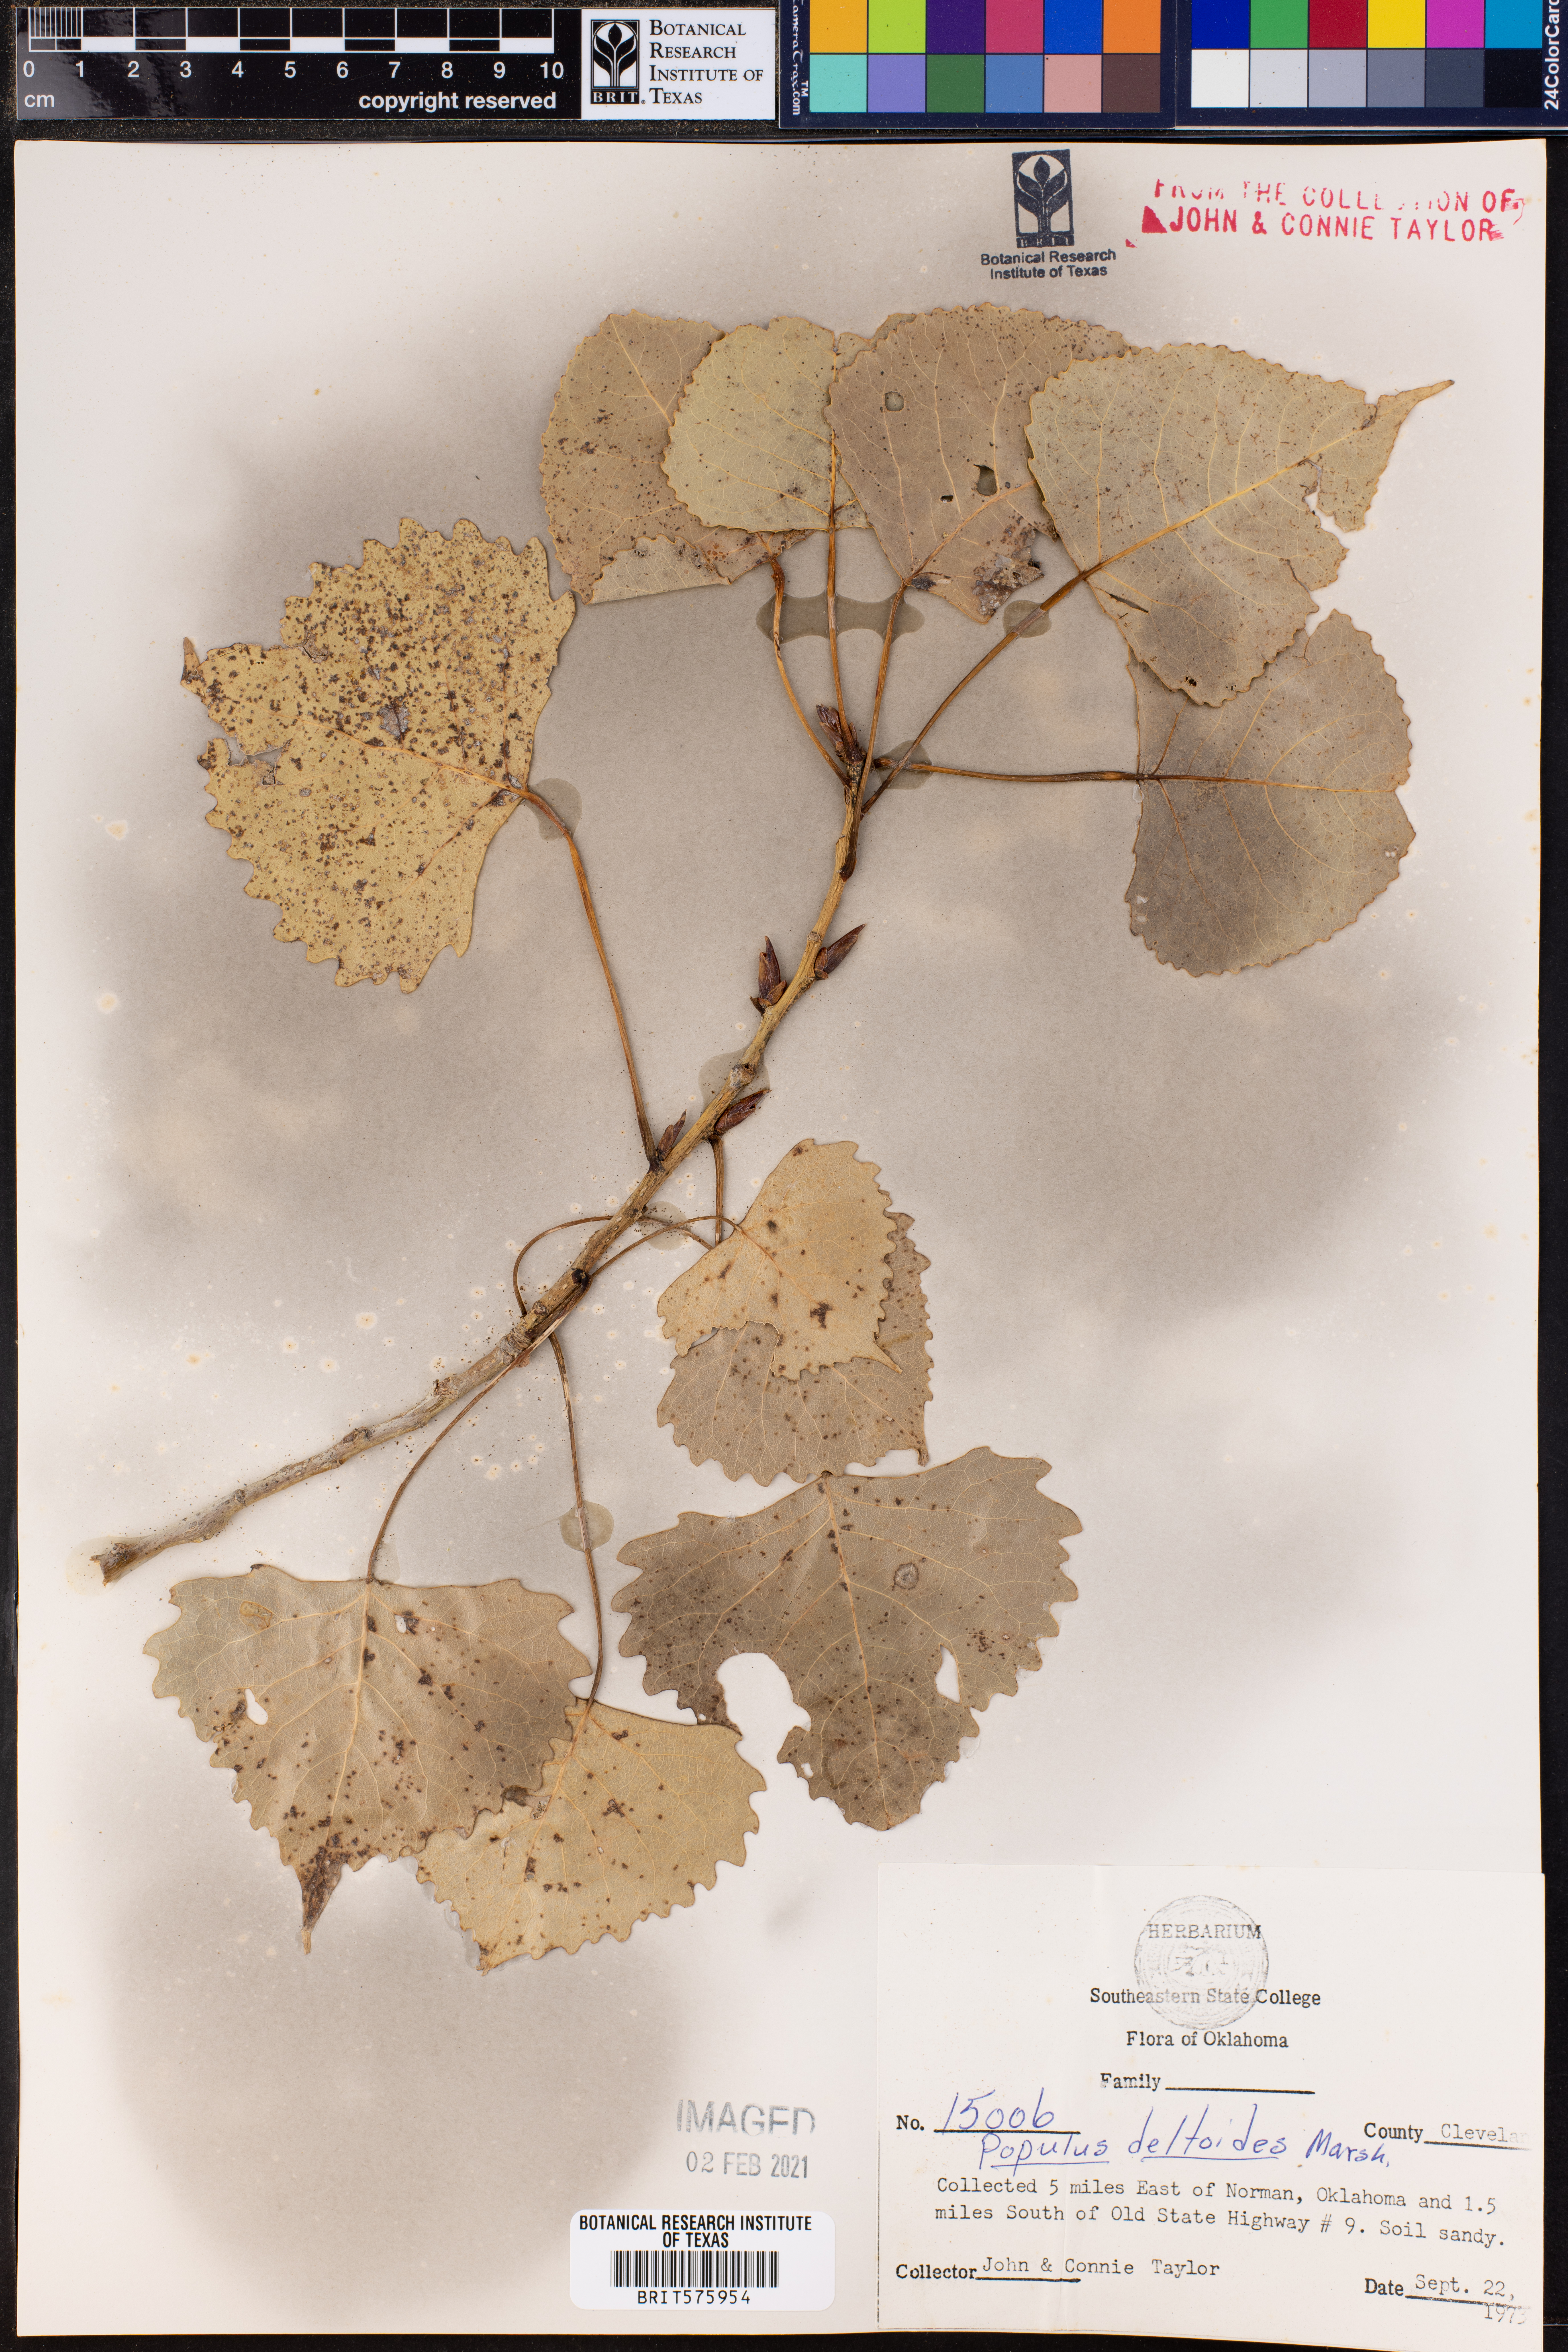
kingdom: Plantae
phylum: Tracheophyta
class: Magnoliopsida
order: Malpighiales
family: Salicaceae
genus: Populus
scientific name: Populus deltoides
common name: Eastern cottonwood
